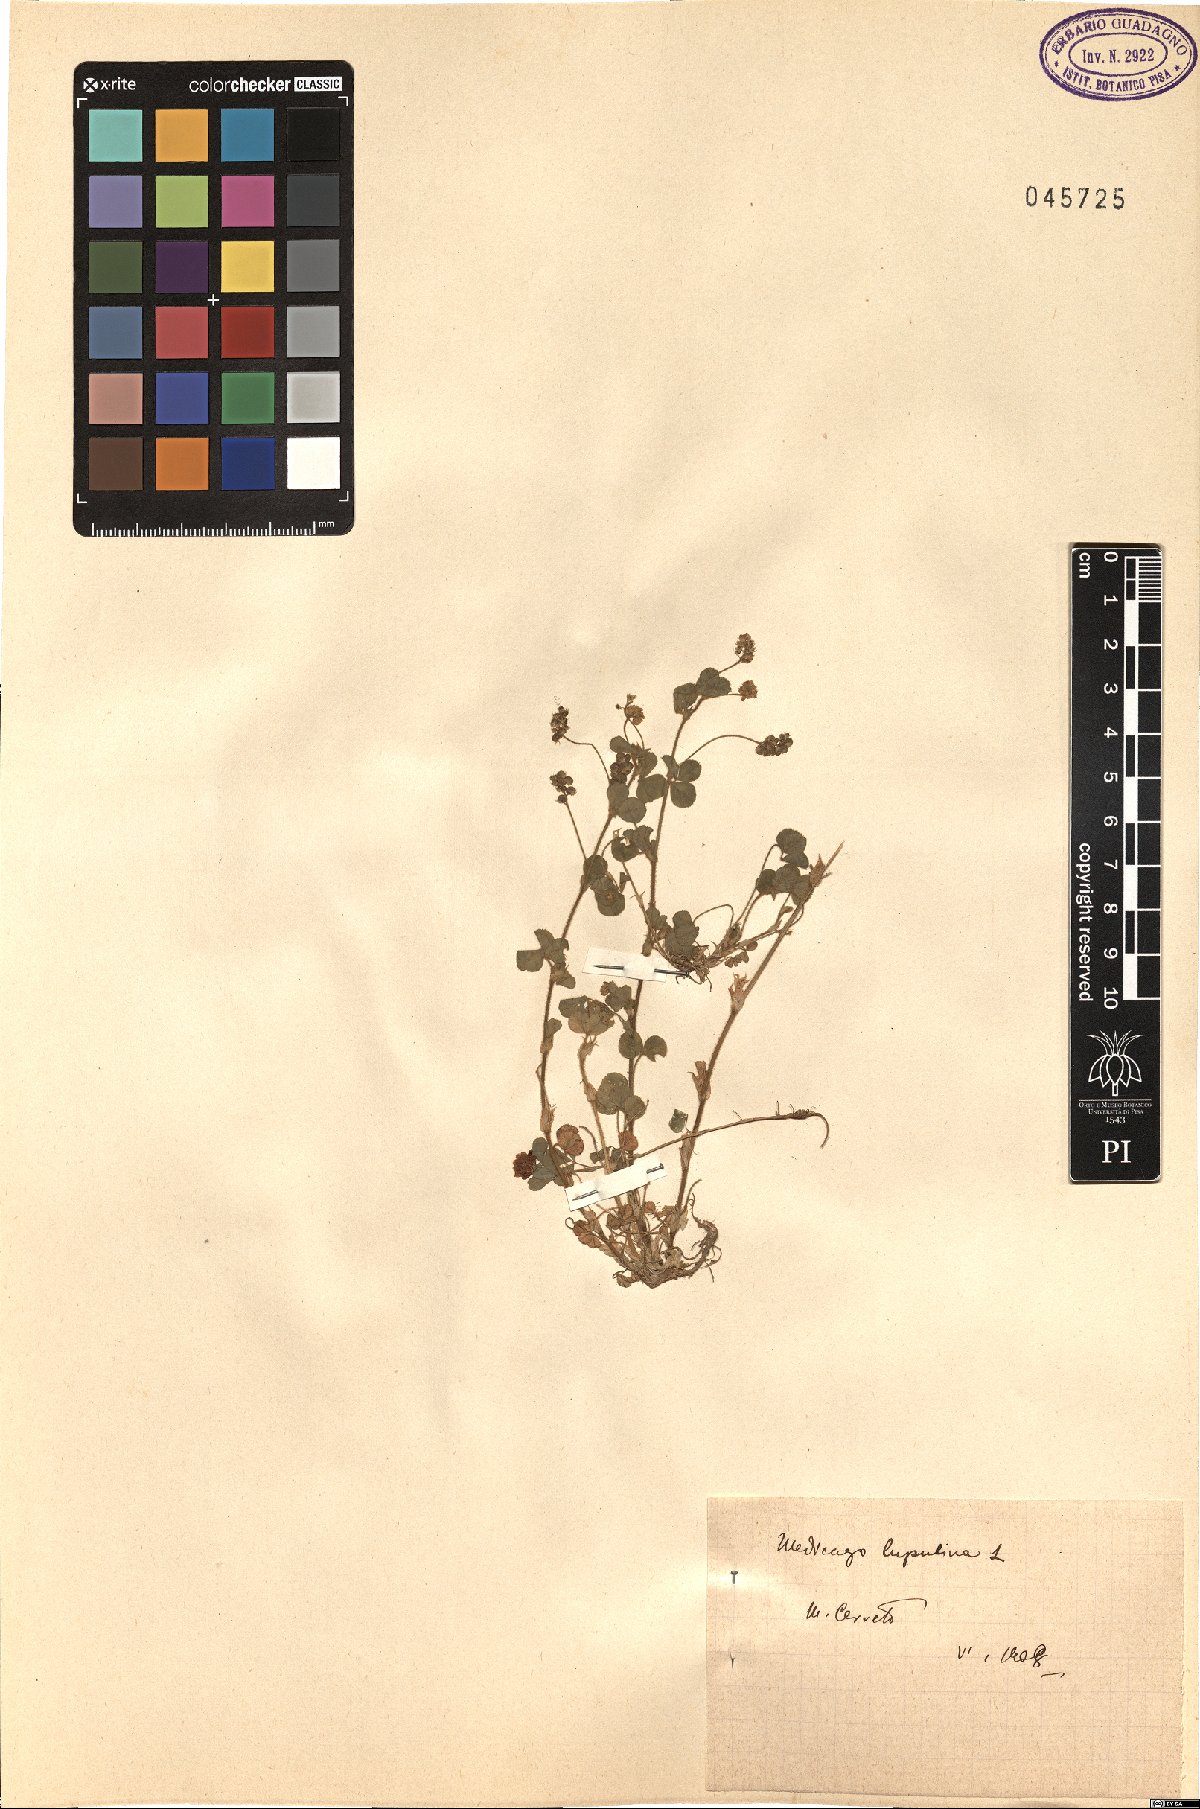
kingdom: Plantae
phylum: Tracheophyta
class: Magnoliopsida
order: Fabales
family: Fabaceae
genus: Medicago
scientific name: Medicago lupulina
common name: Black medick
